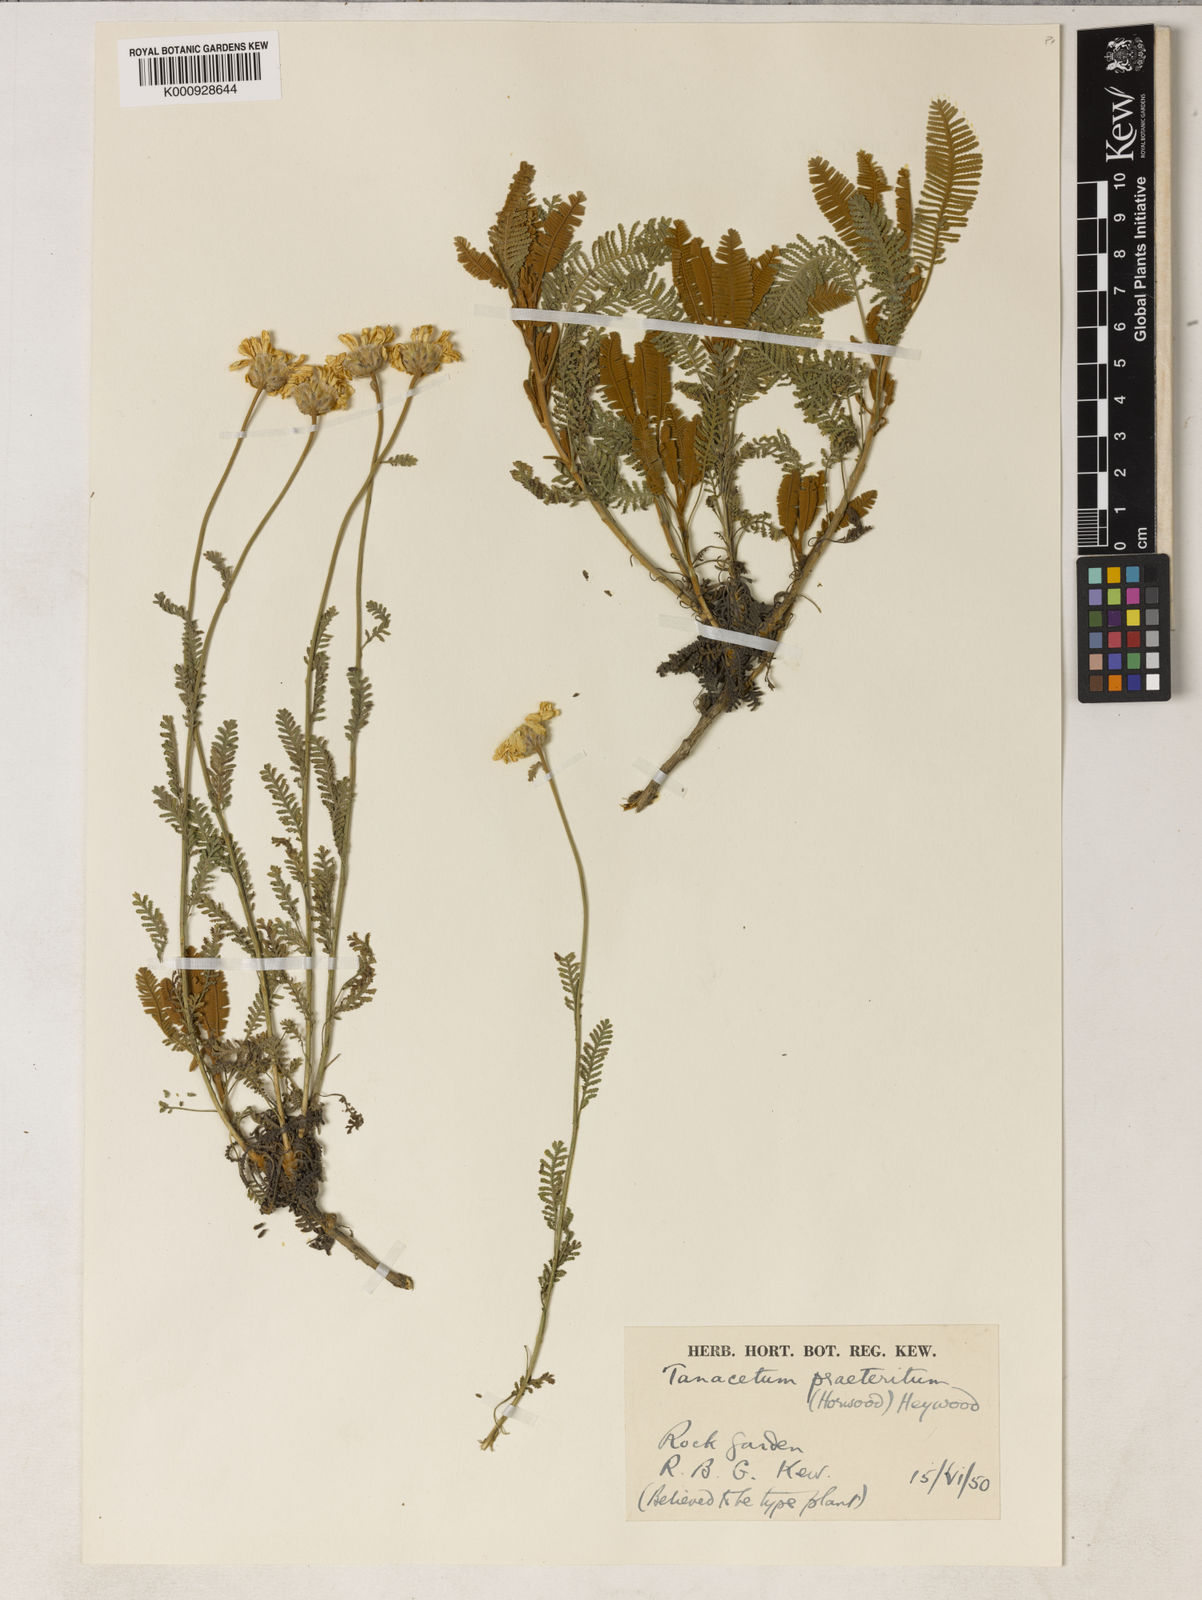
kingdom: Plantae
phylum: Tracheophyta
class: Magnoliopsida
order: Asterales
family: Asteraceae
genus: Tanacetum
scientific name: Tanacetum praeteritum
